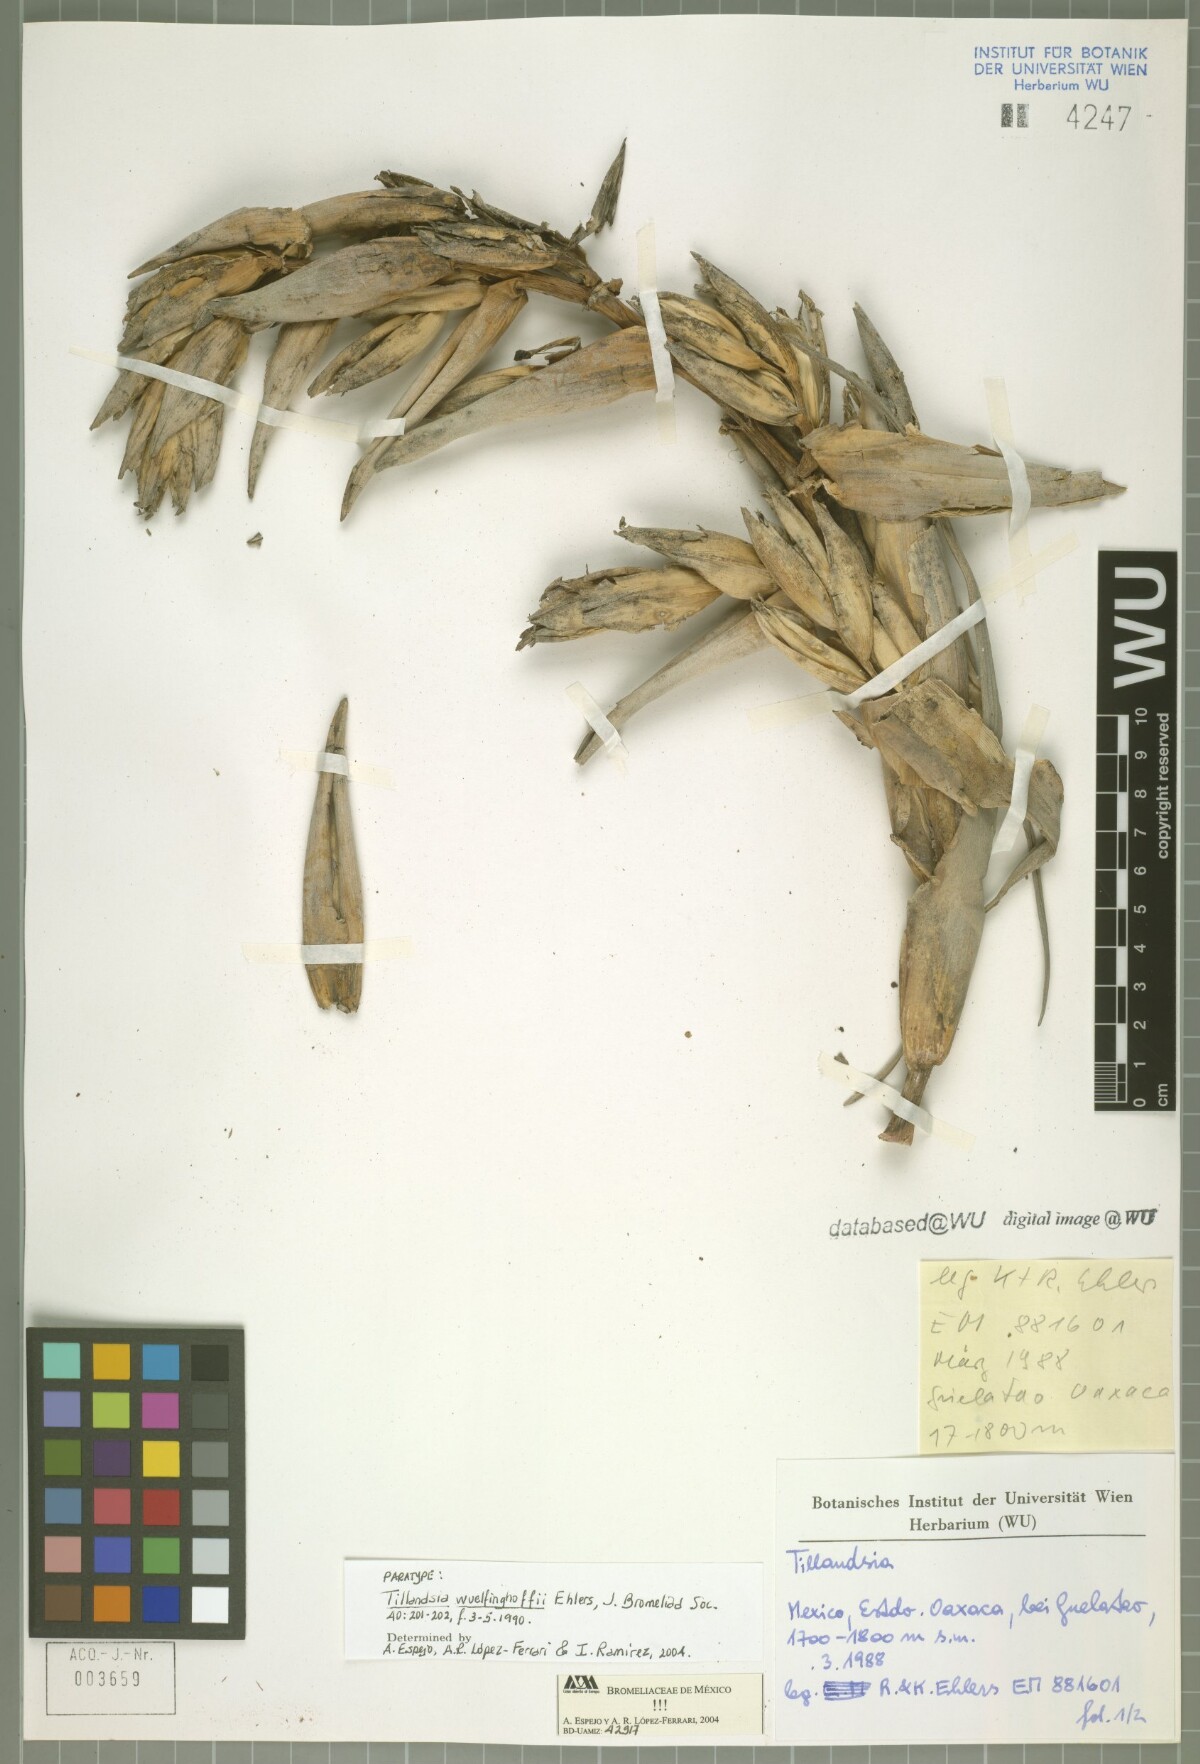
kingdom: Plantae
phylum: Tracheophyta
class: Liliopsida
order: Poales
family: Bromeliaceae
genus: Tillandsia
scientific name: Tillandsia wuelfinghoffii
